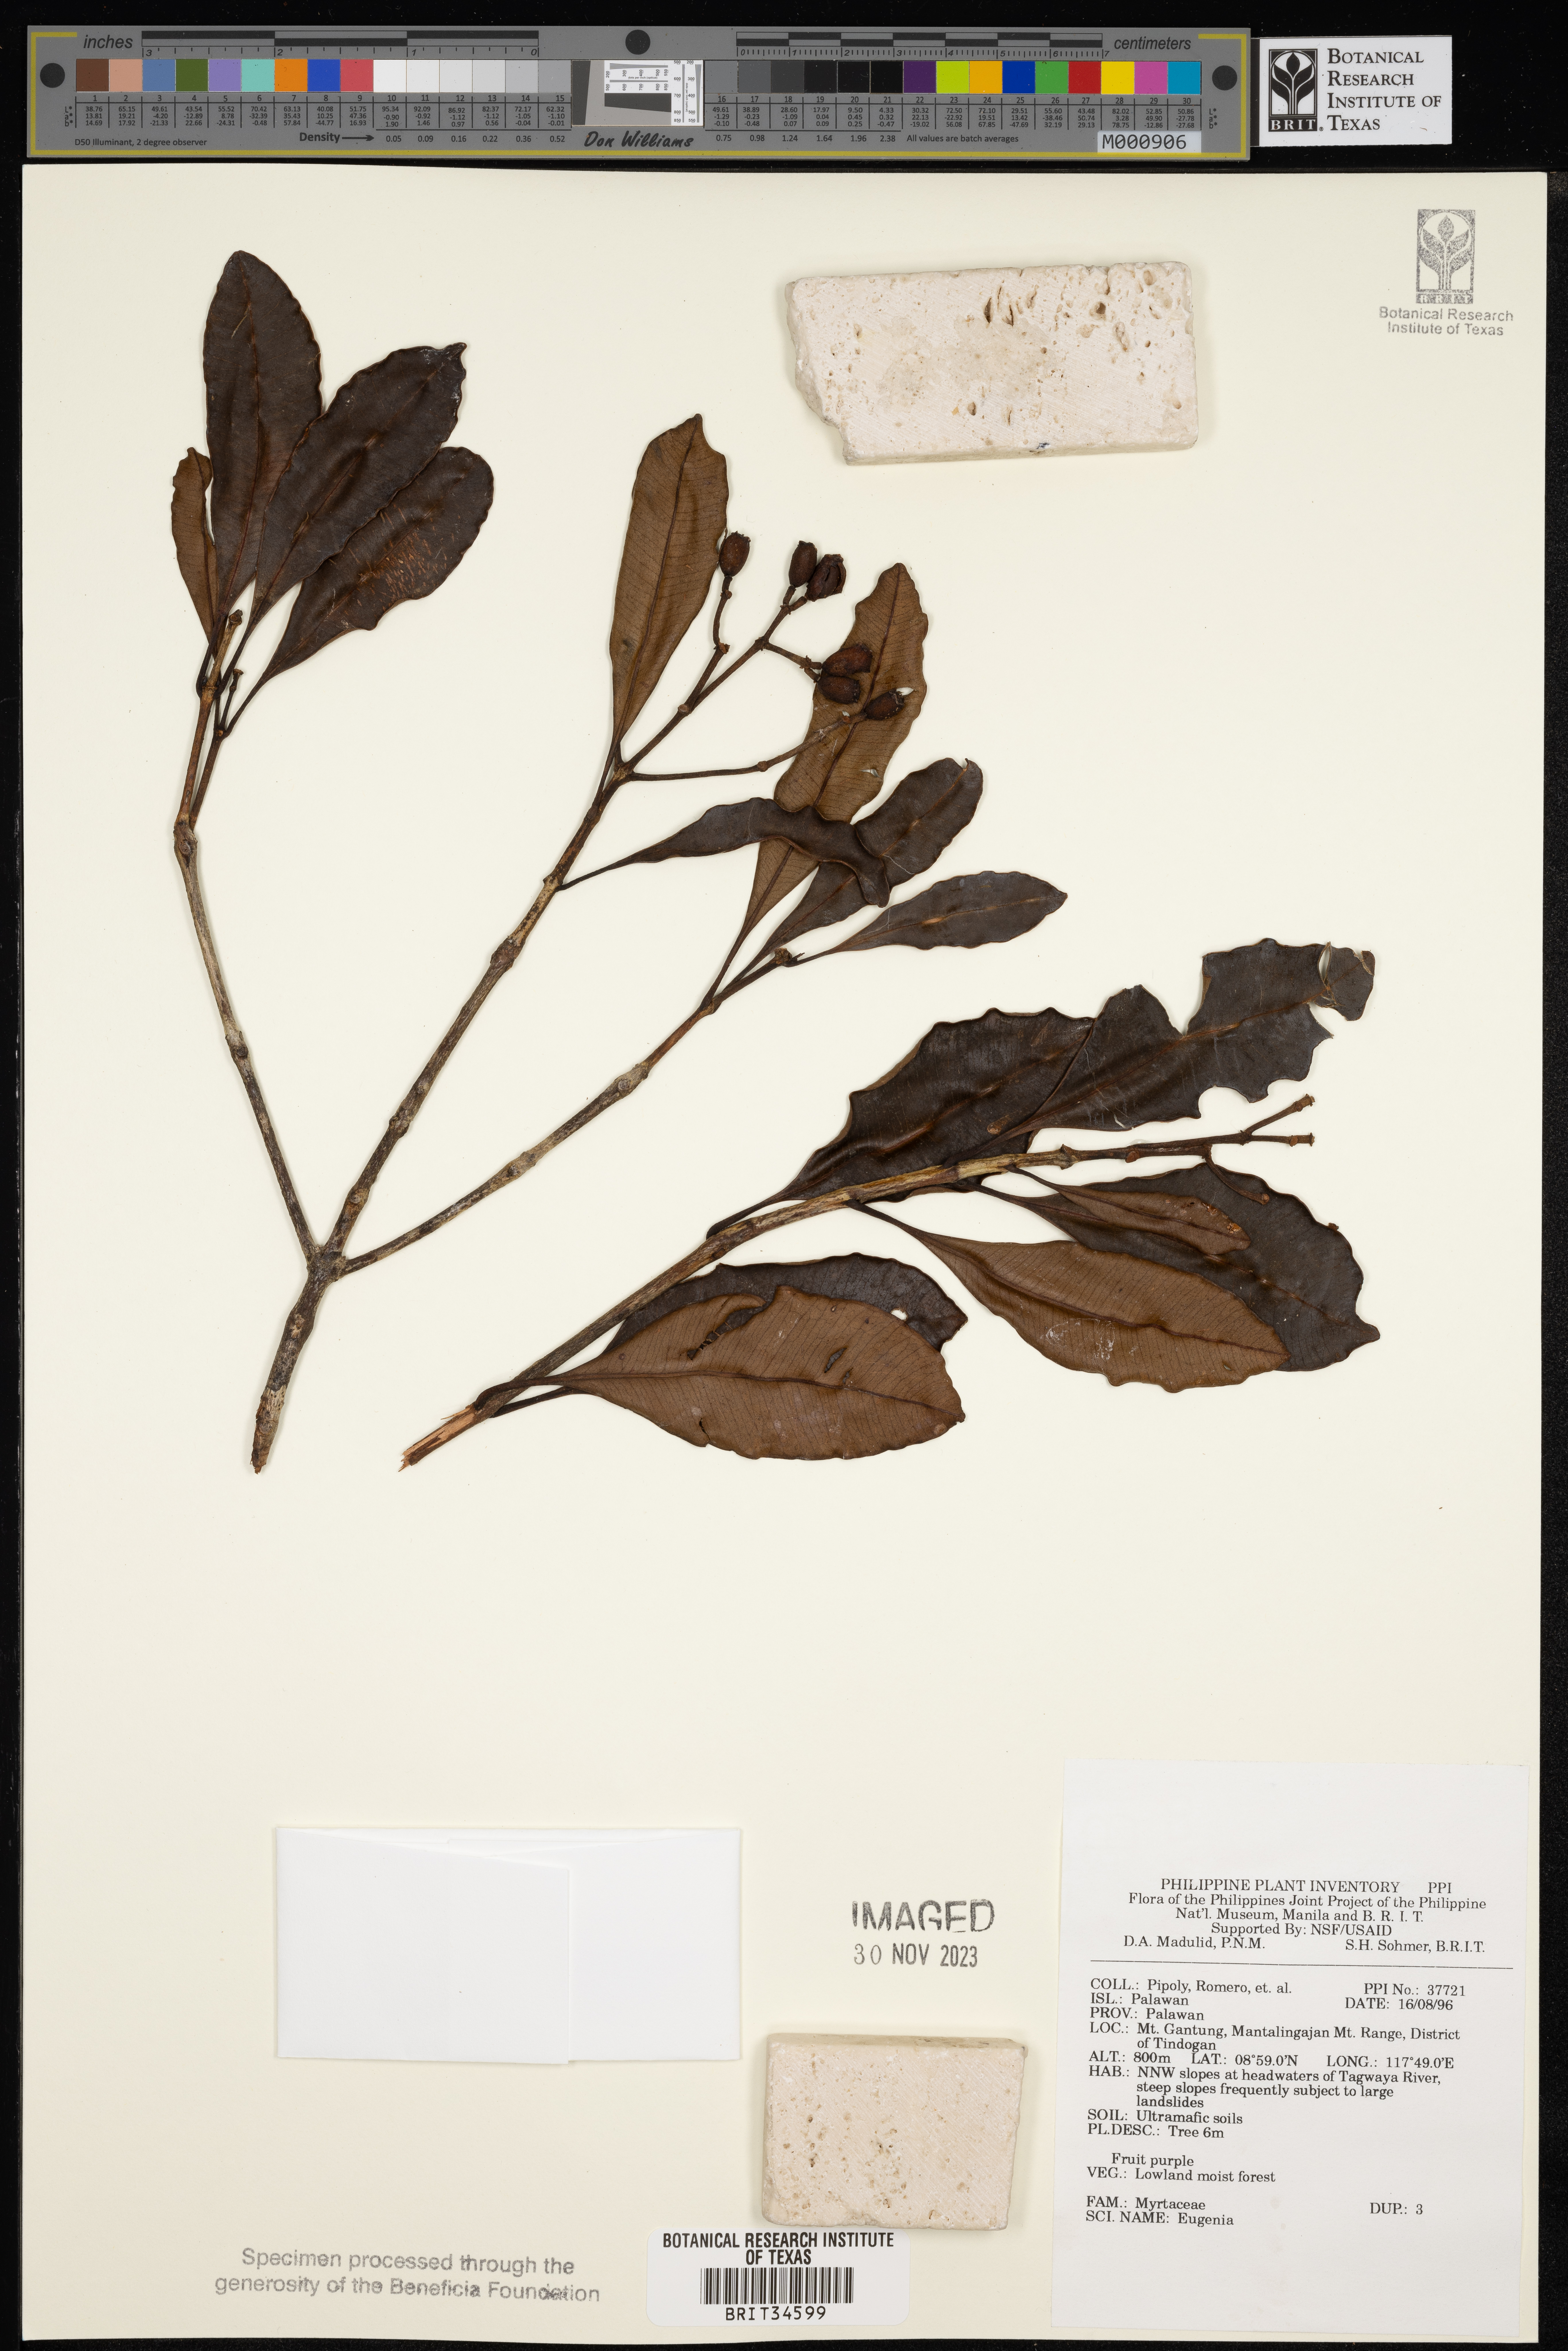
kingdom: Plantae
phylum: Tracheophyta
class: Magnoliopsida
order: Myrtales
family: Myrtaceae
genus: Eugenia
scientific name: Eugenia
